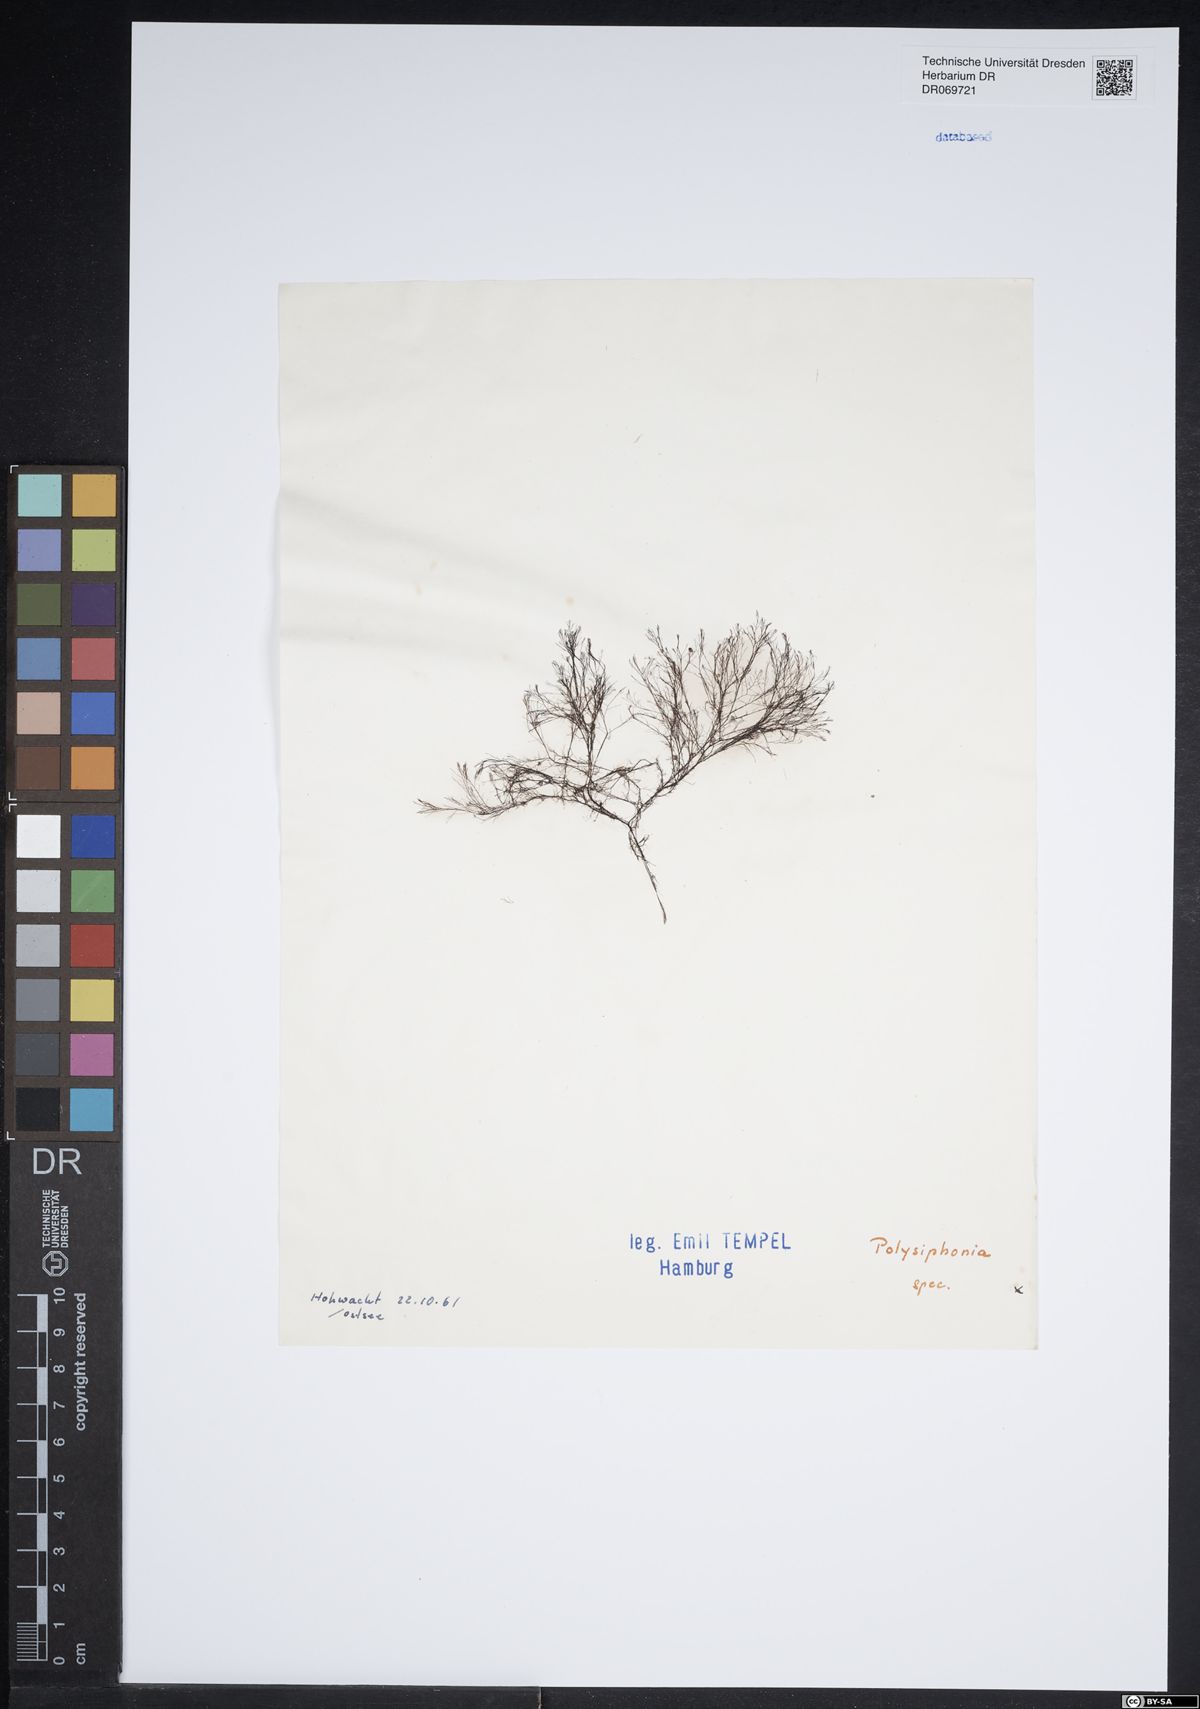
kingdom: Plantae
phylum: Rhodophyta
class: Florideophyceae
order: Ceramiales
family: Rhodomelaceae
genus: Polysiphonia
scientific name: Polysiphonia
